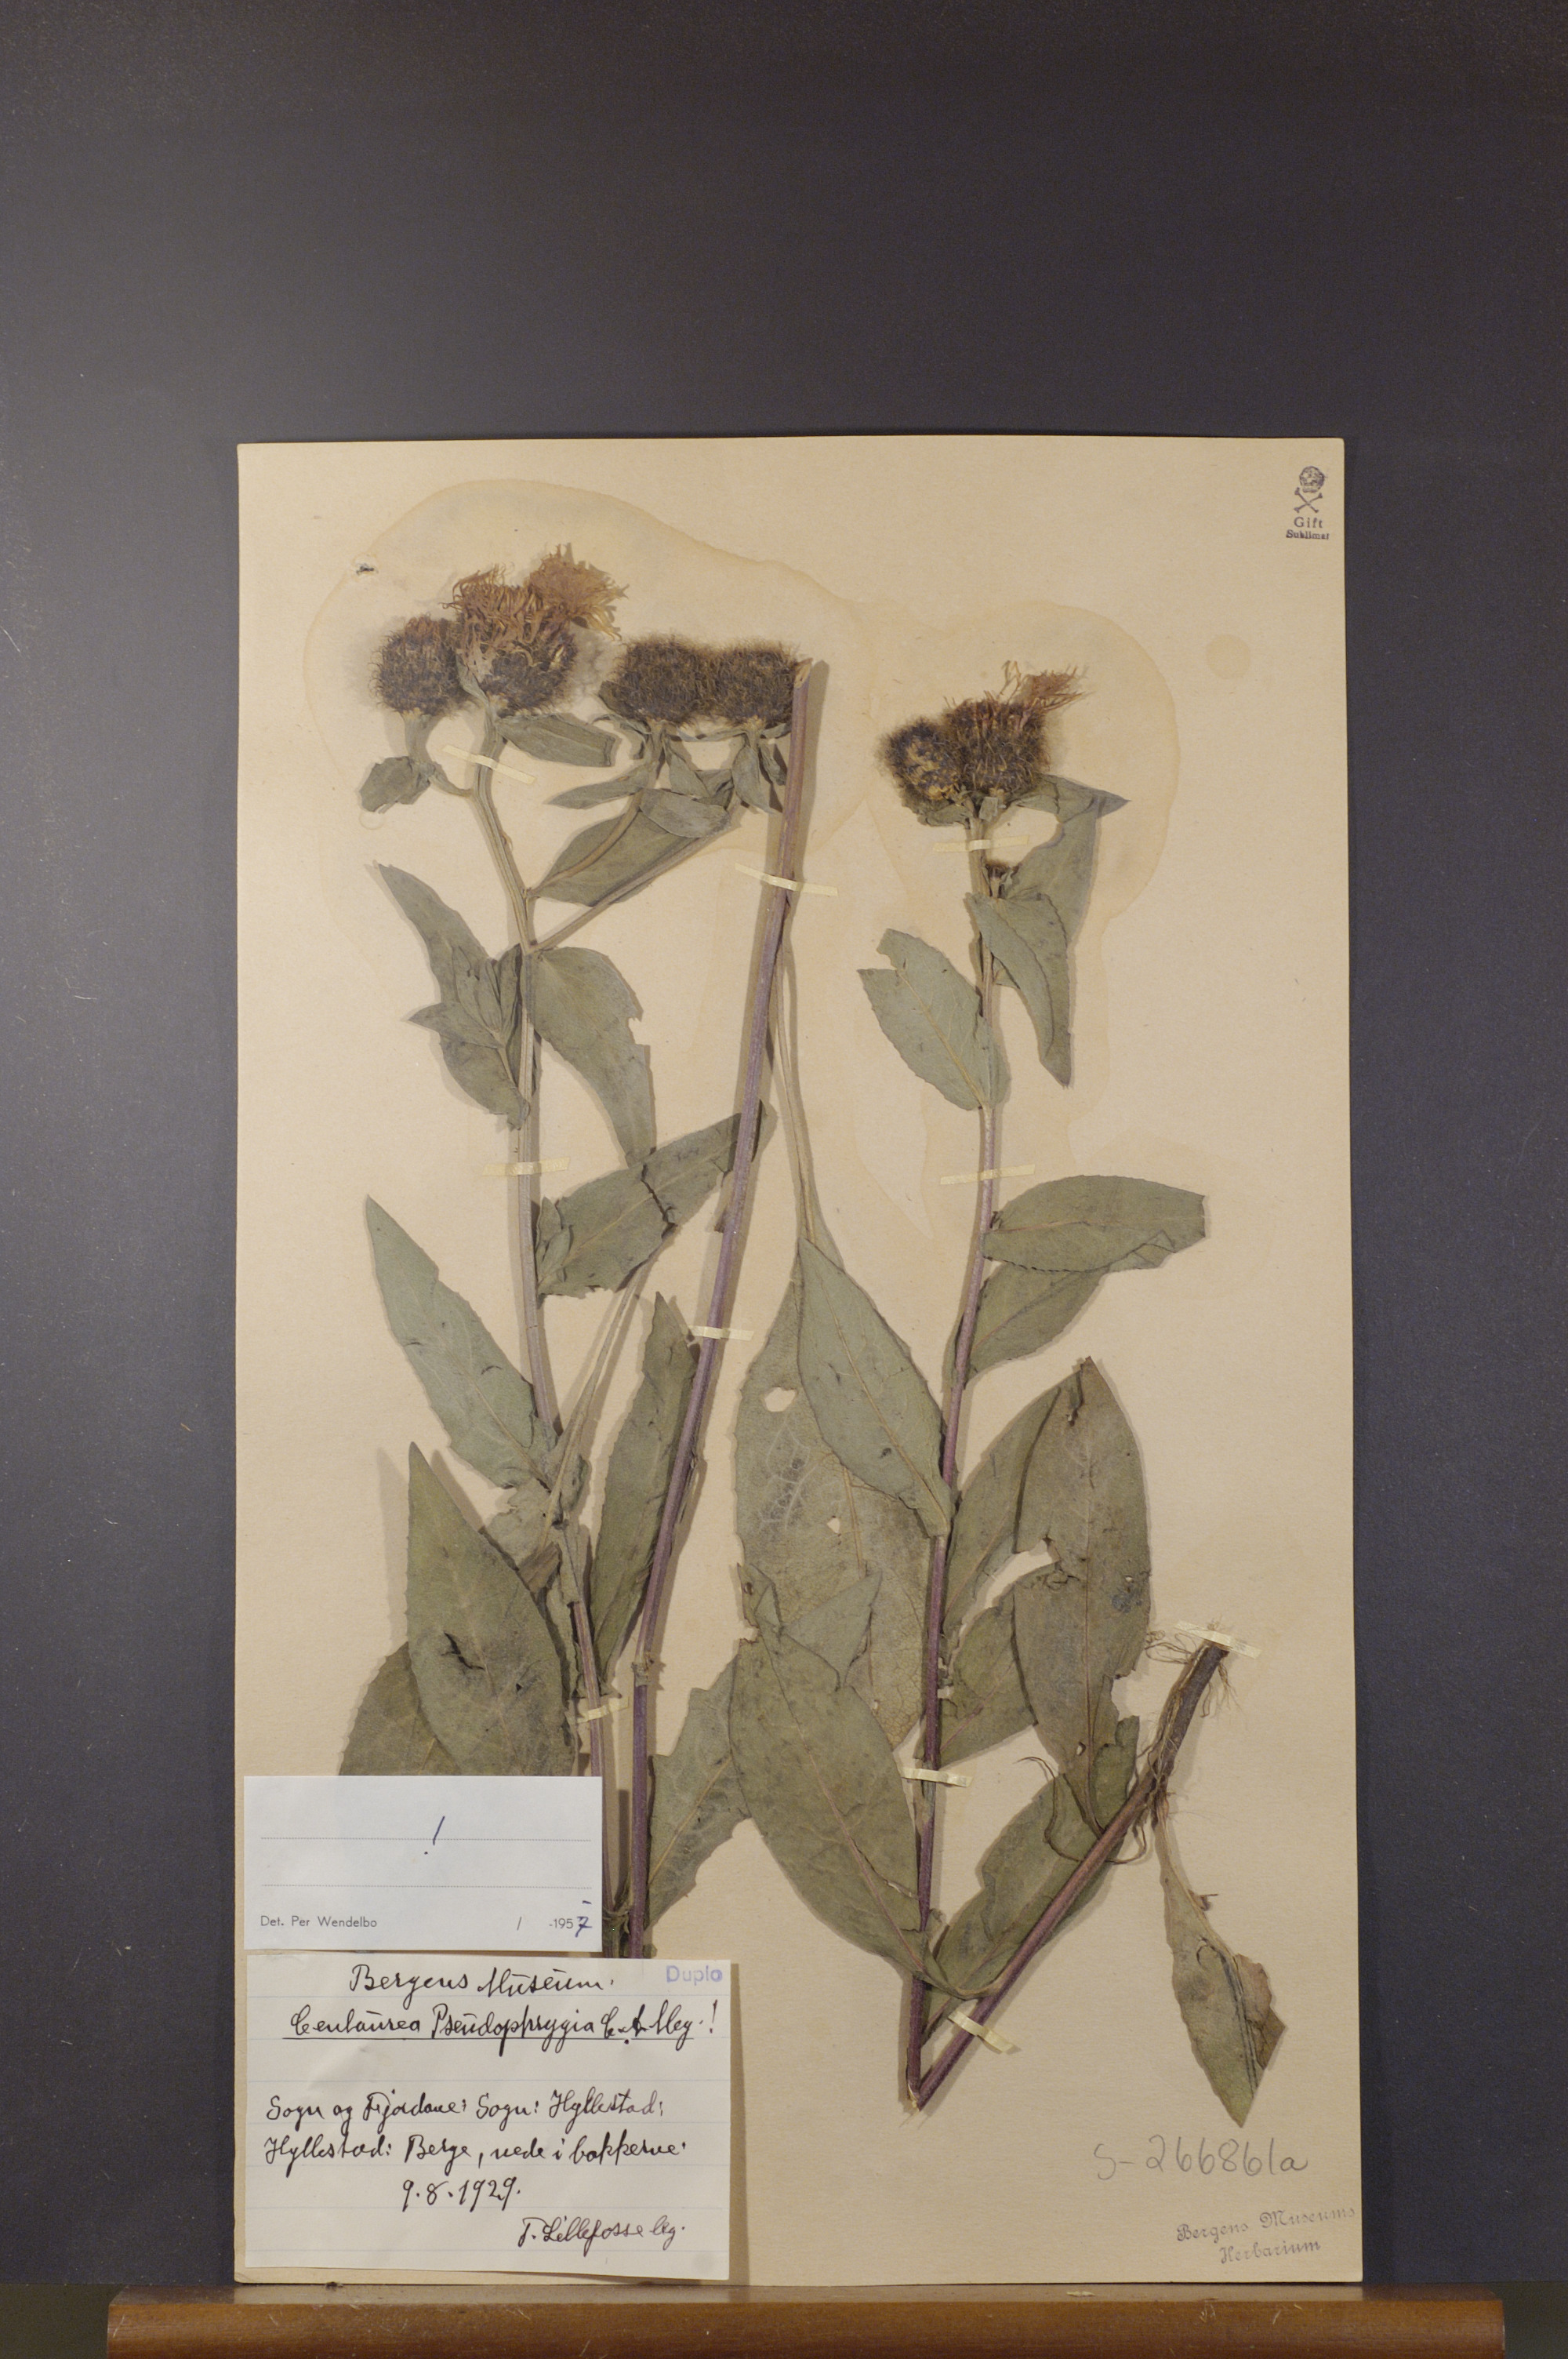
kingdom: Plantae
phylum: Tracheophyta
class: Magnoliopsida
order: Asterales
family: Asteraceae
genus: Centaurea
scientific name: Centaurea pseudophrygia
